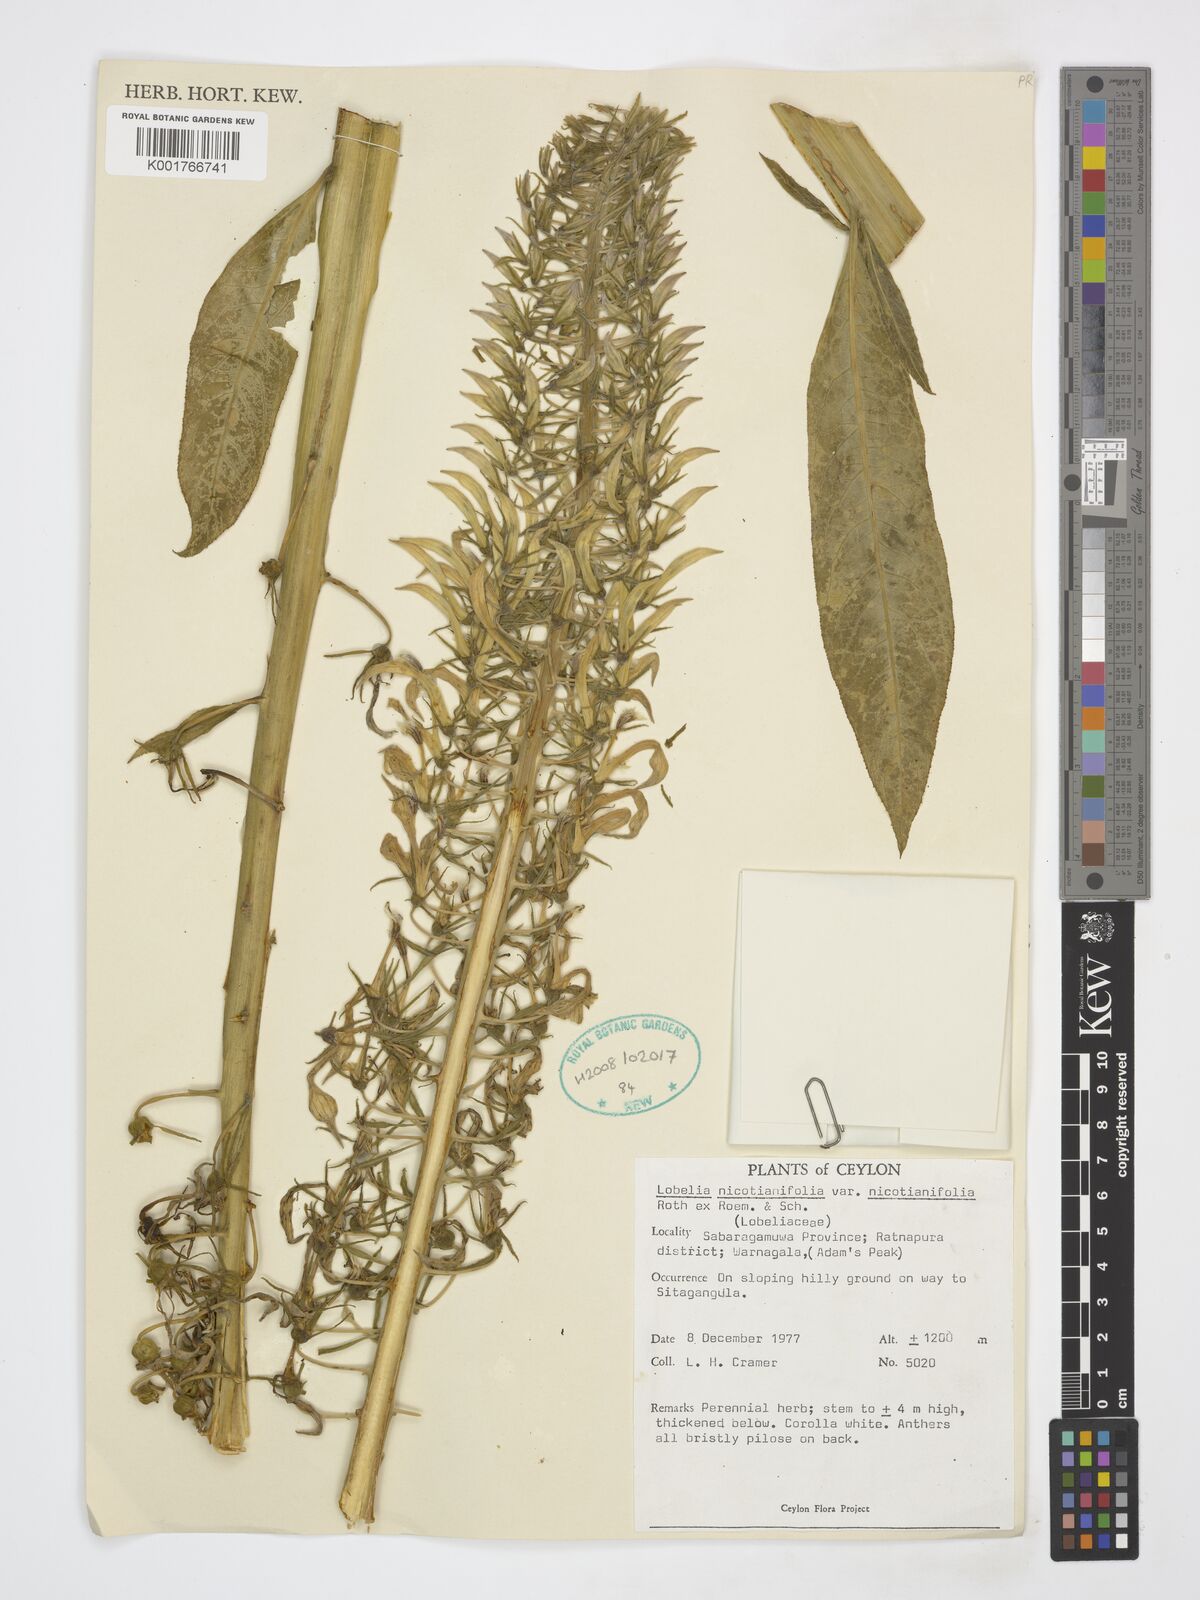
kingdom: Plantae
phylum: Tracheophyta
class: Magnoliopsida
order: Asterales
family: Campanulaceae
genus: Lobelia
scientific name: Lobelia nicotianifolia
